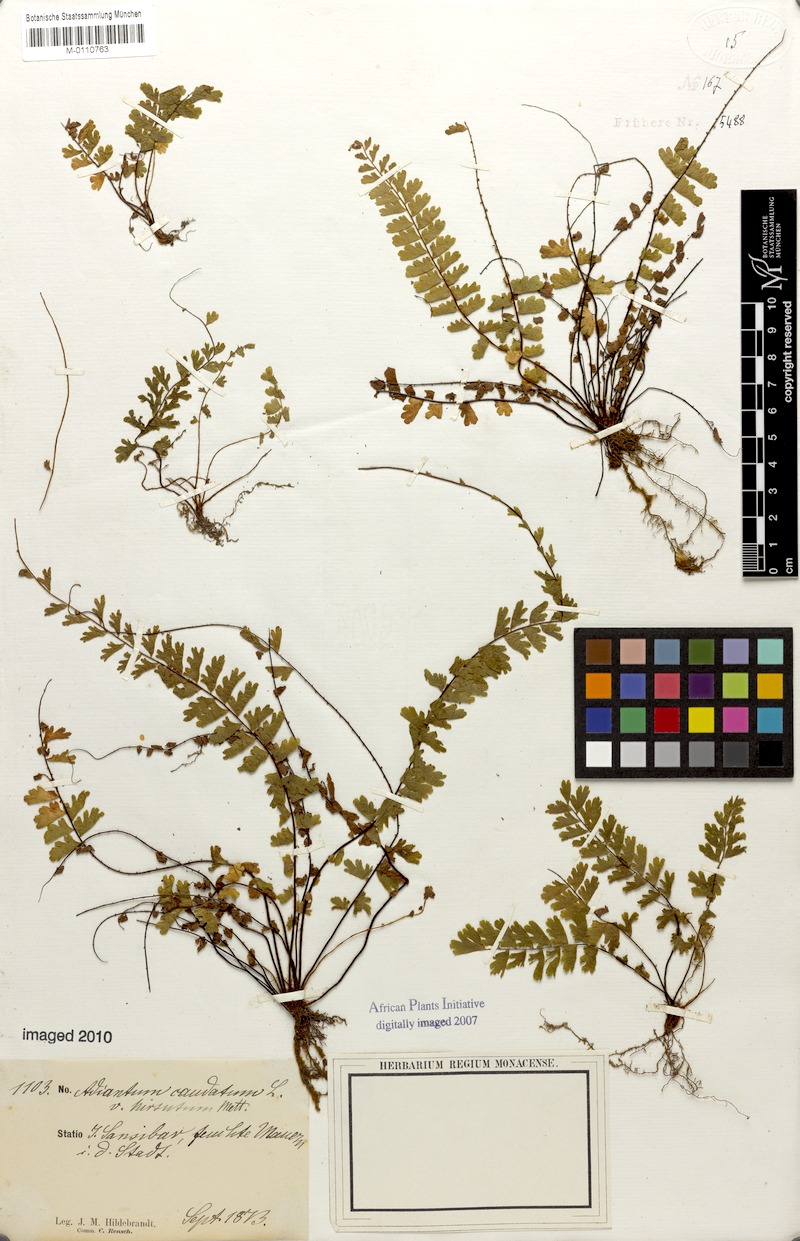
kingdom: Plantae
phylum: Tracheophyta
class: Polypodiopsida
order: Polypodiales
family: Pteridaceae
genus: Adiantum
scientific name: Adiantum caudatum
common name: Tailed maidenhair
